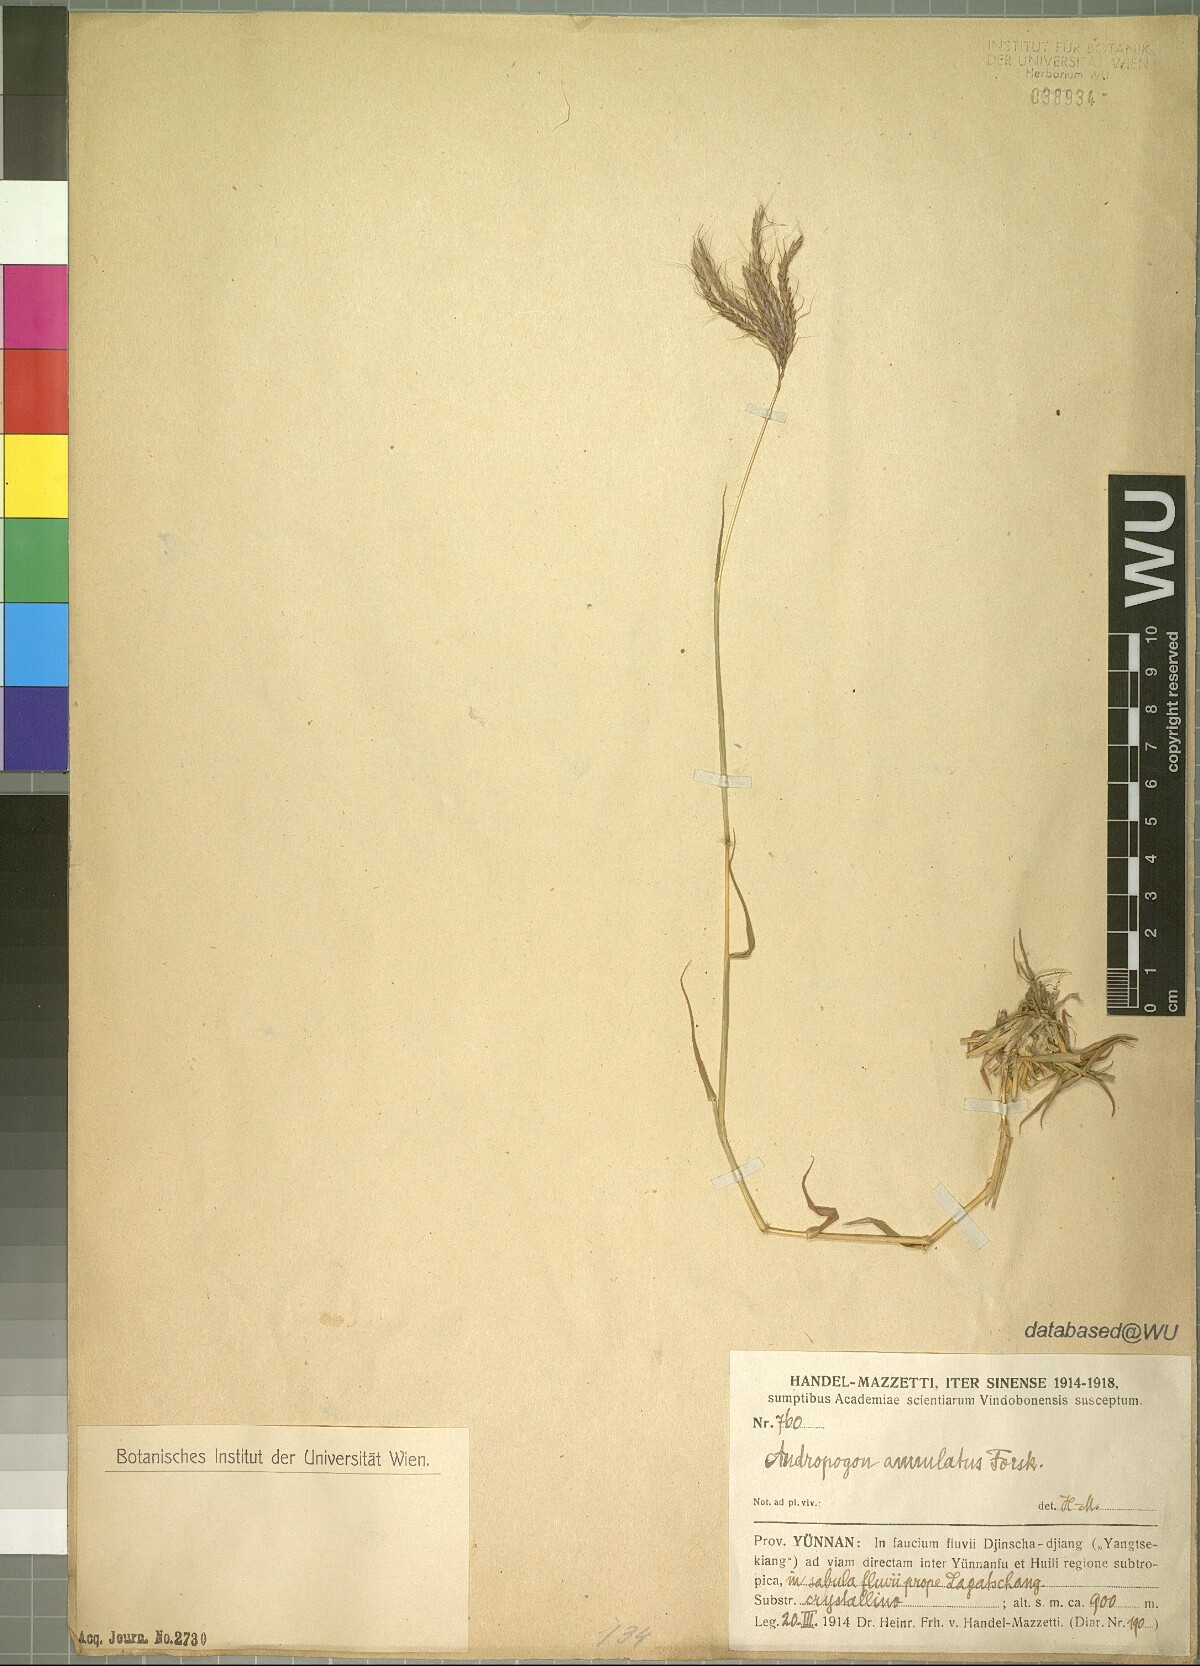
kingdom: Plantae
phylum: Tracheophyta
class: Liliopsida
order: Poales
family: Poaceae
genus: Dichanthium
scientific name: Dichanthium annulatum
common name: Kleberg's bluestem
